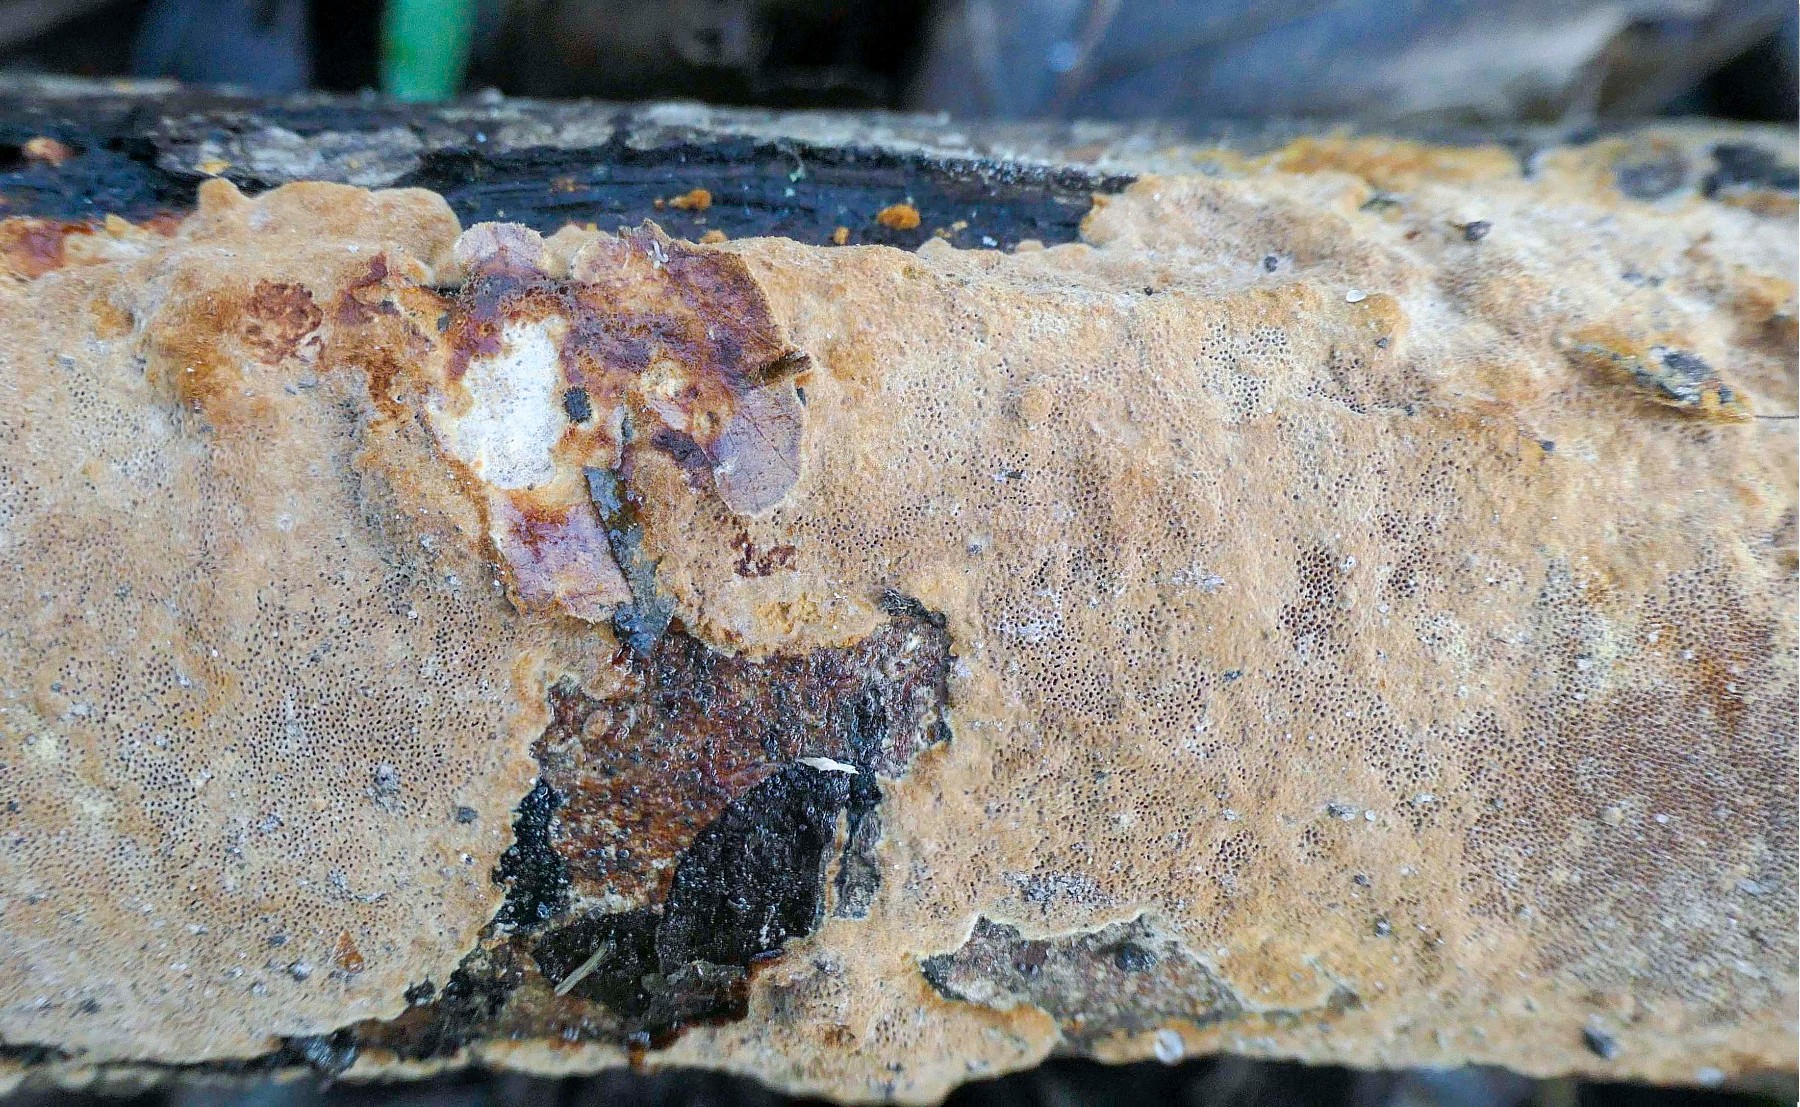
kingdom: Fungi
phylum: Basidiomycota
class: Agaricomycetes
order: Hymenochaetales
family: Hymenochaetaceae
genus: Fuscoporia
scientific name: Fuscoporia ferruginosa
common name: rustbrun ildporesvamp
